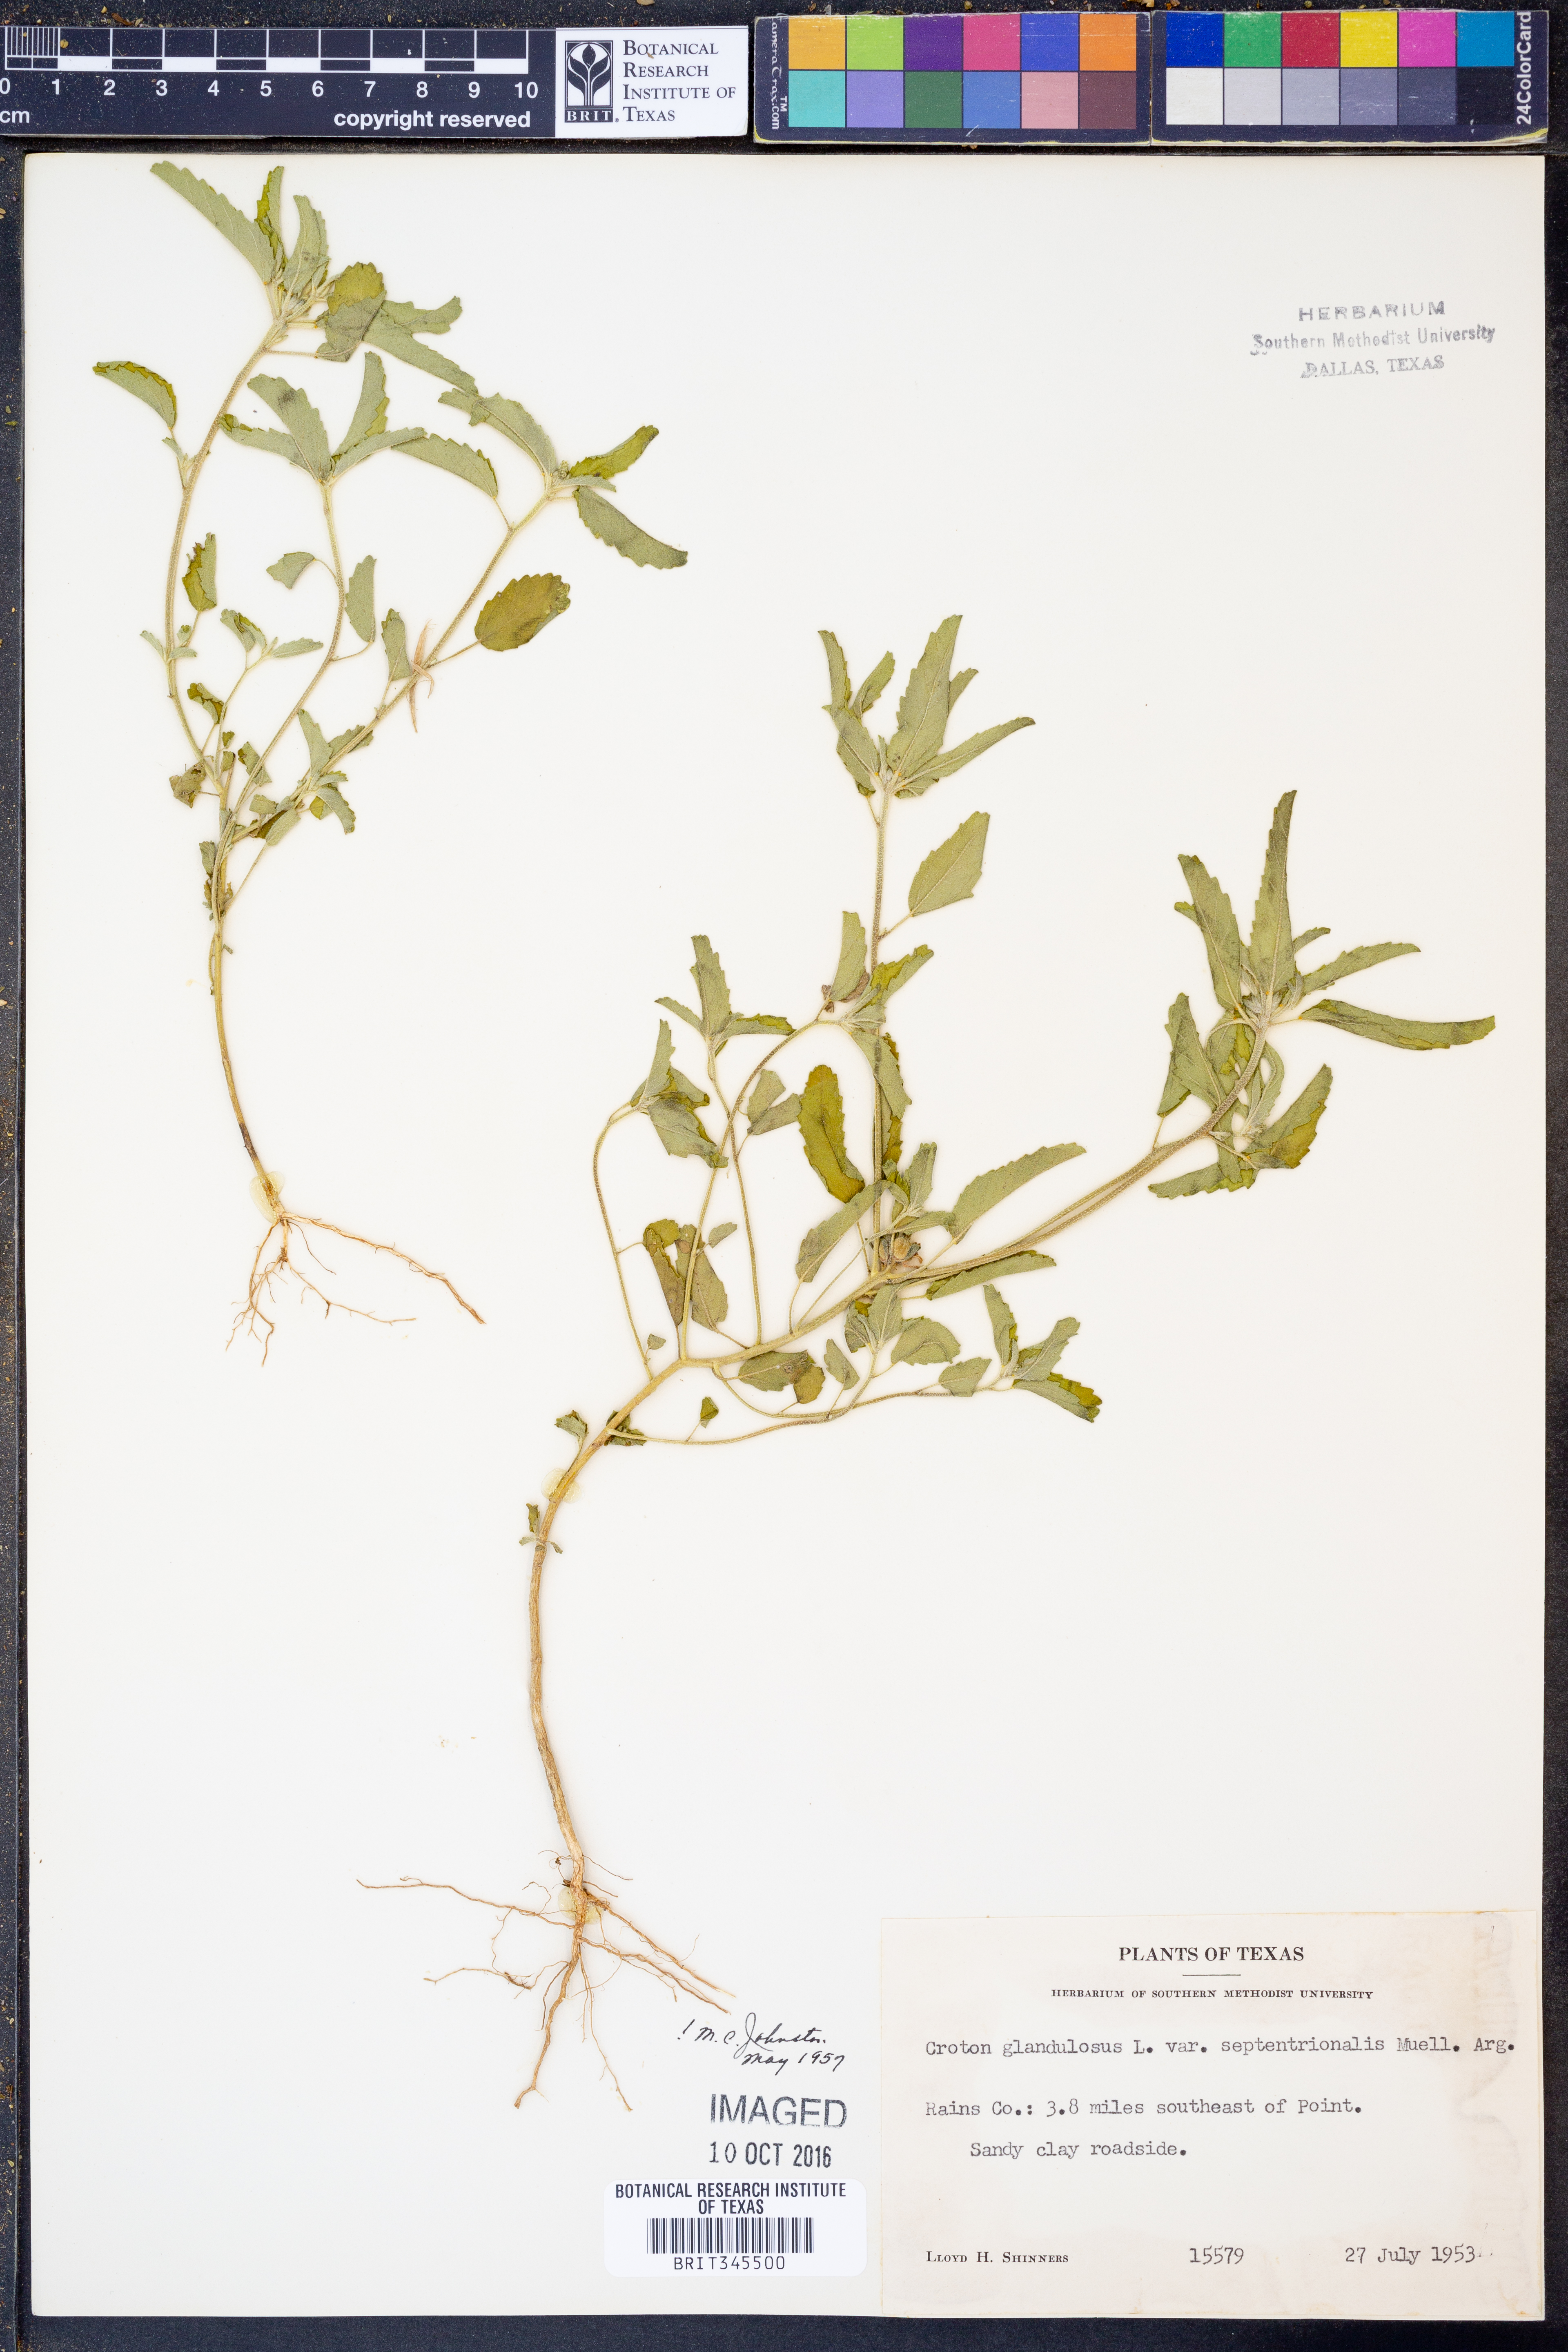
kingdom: Plantae
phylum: Tracheophyta
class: Magnoliopsida
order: Malpighiales
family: Euphorbiaceae
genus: Croton
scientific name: Croton glandulosus
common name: Tropic croton
